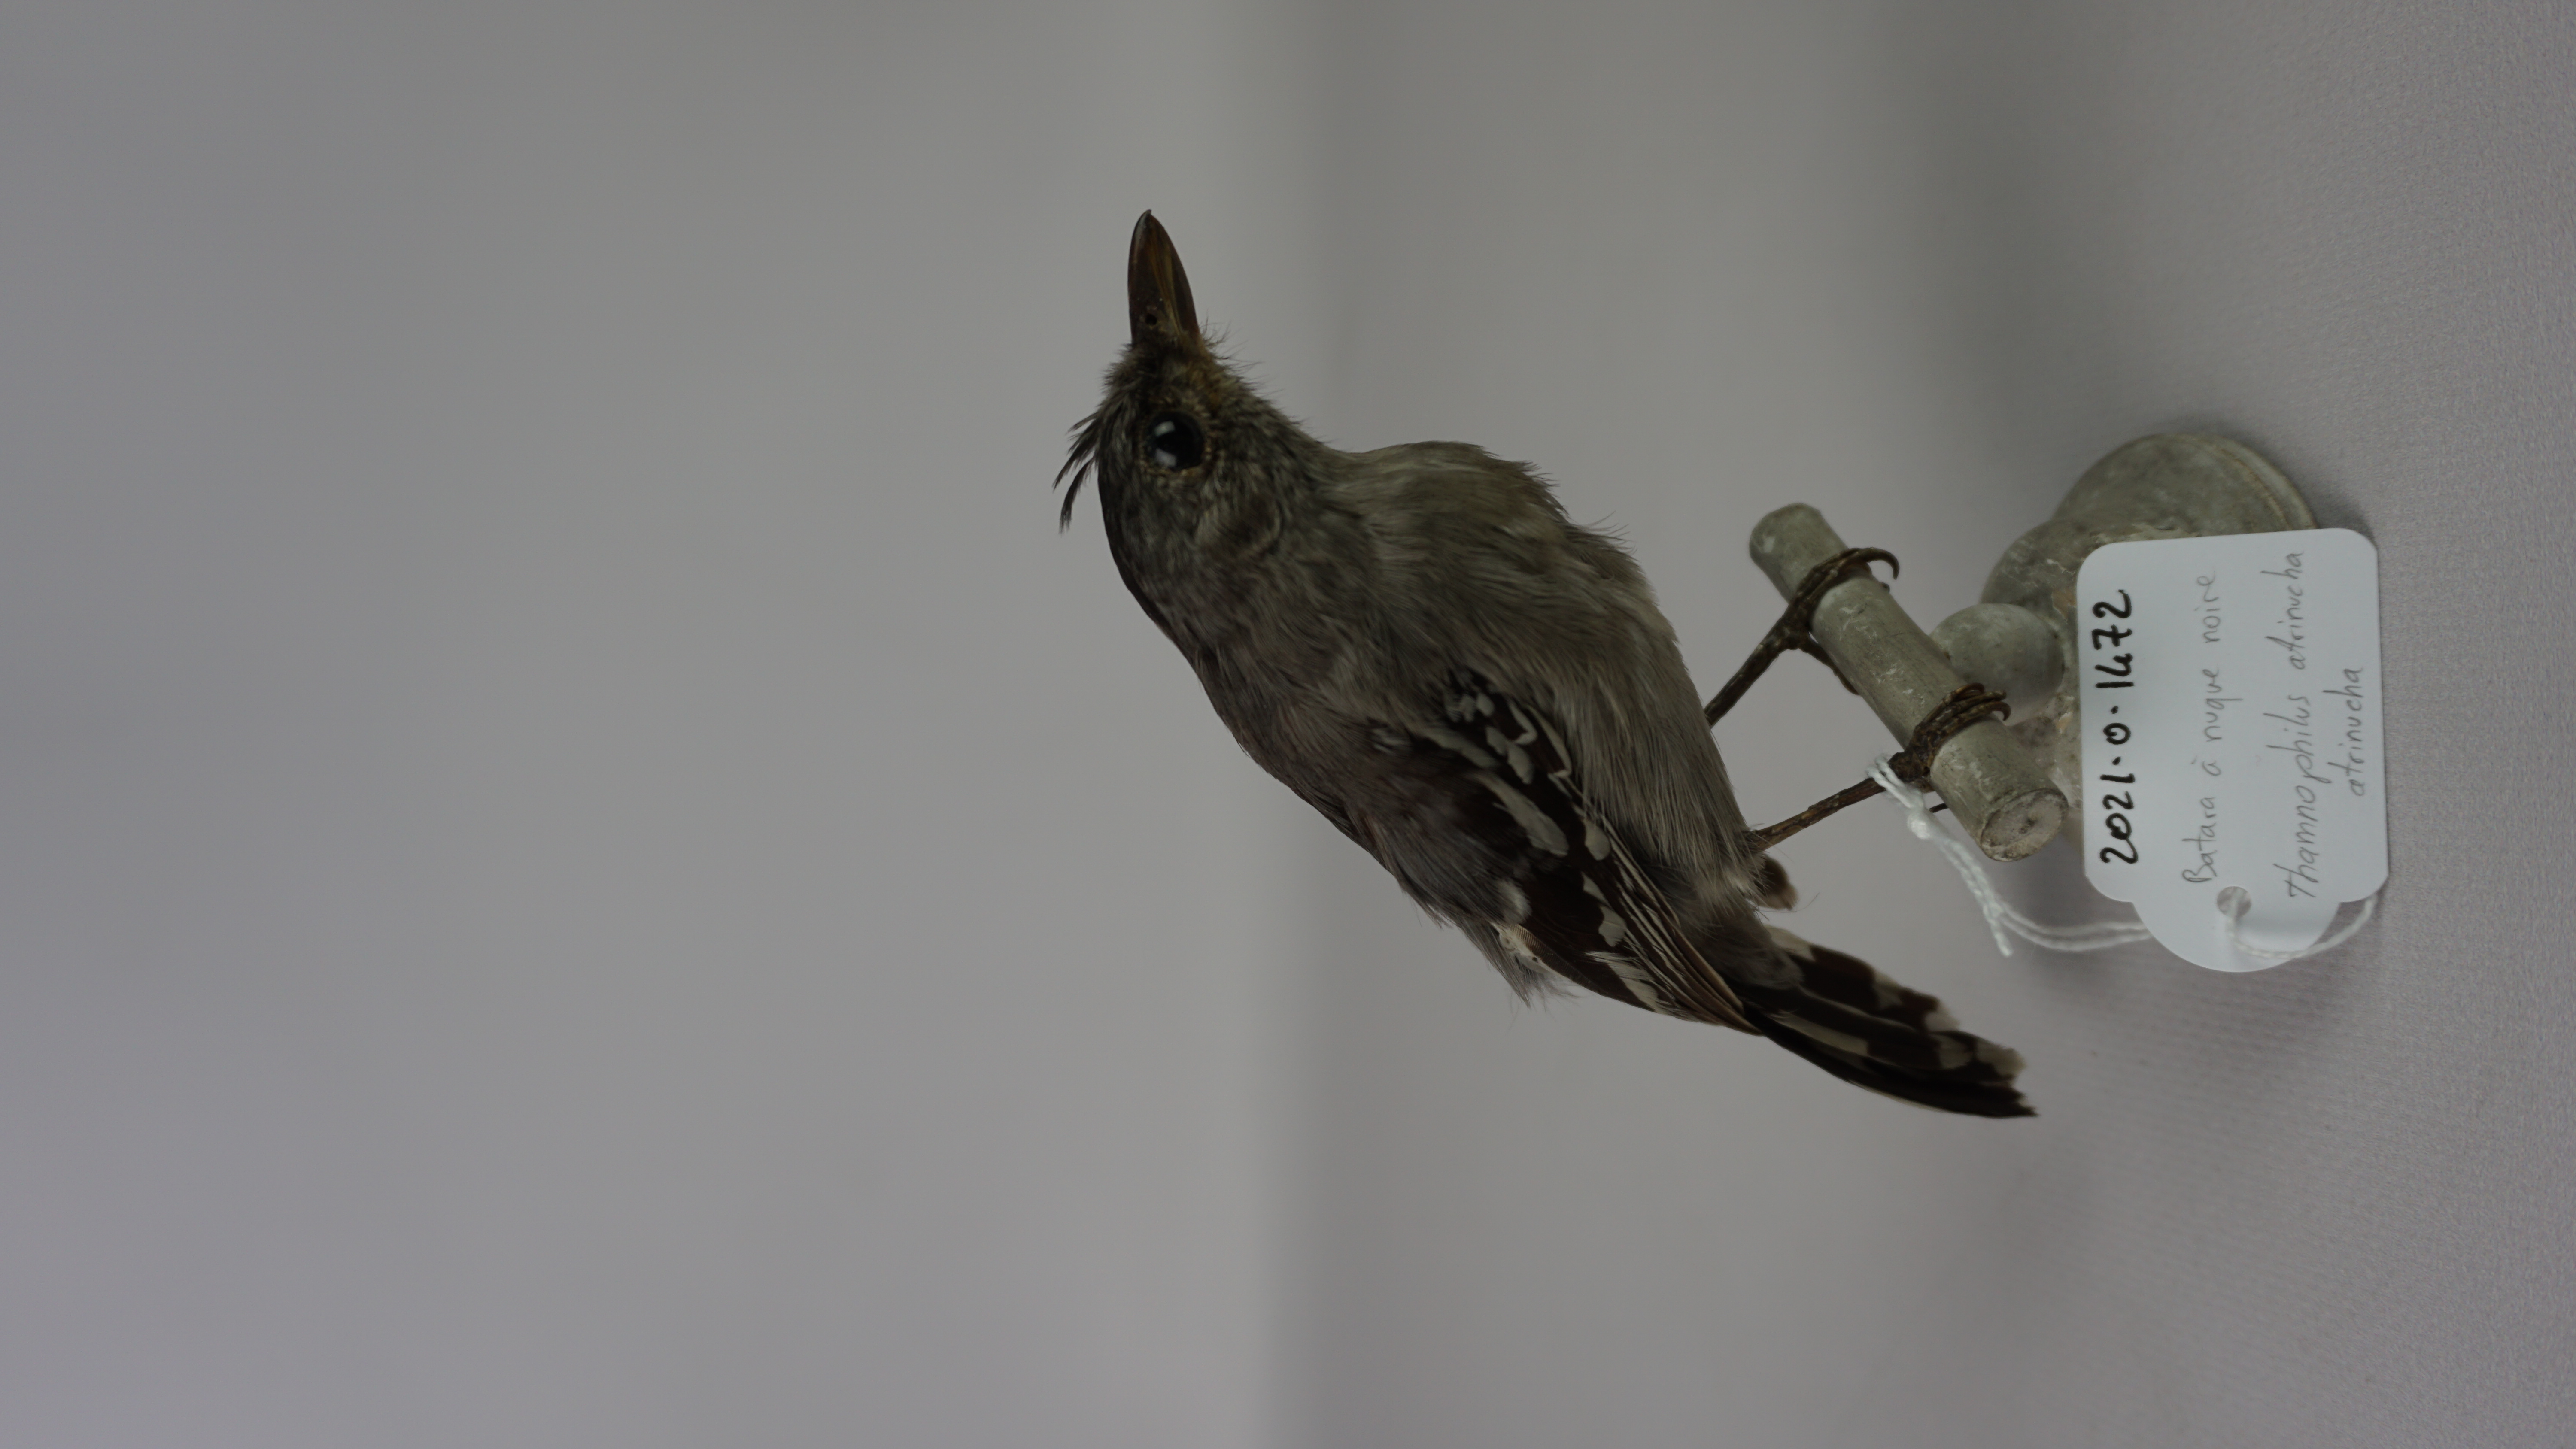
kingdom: Animalia
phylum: Chordata
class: Aves
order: Passeriformes
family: Thamnophilidae
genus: Thamnophilus
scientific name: Thamnophilus atrinucha
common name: Black-crowned antshrike
